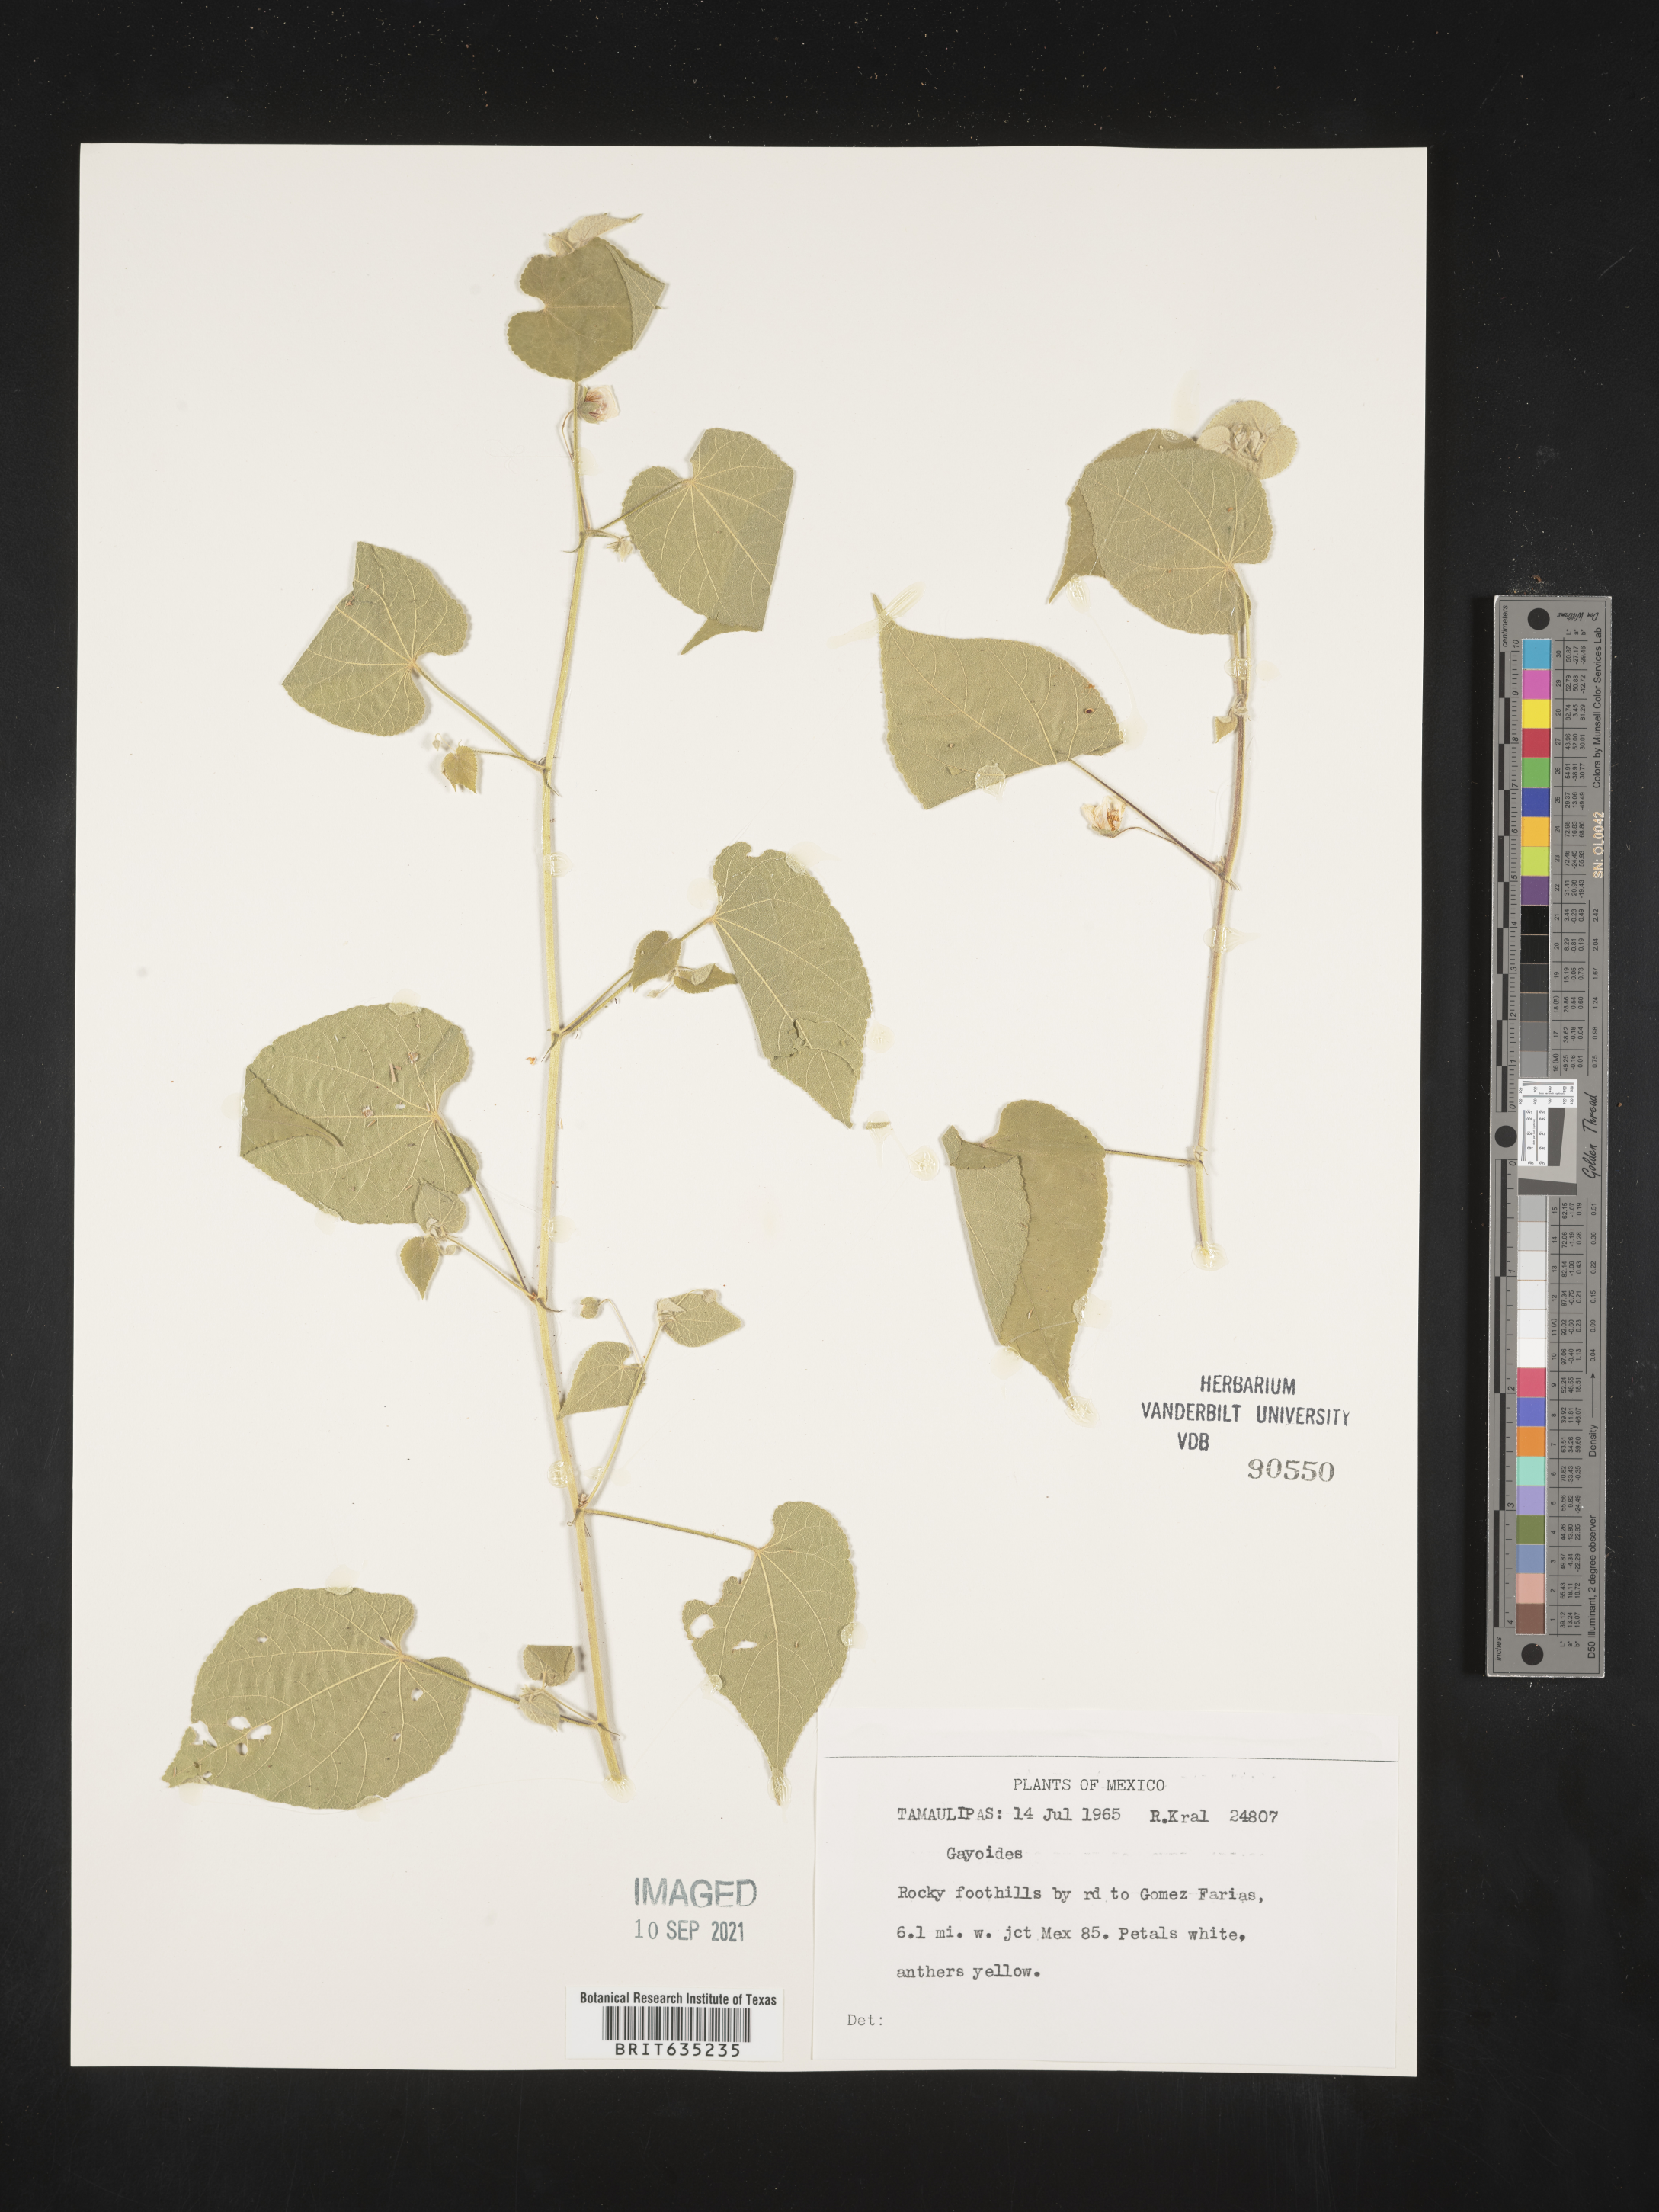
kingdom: Plantae
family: Gayoides
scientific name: Gayoides
